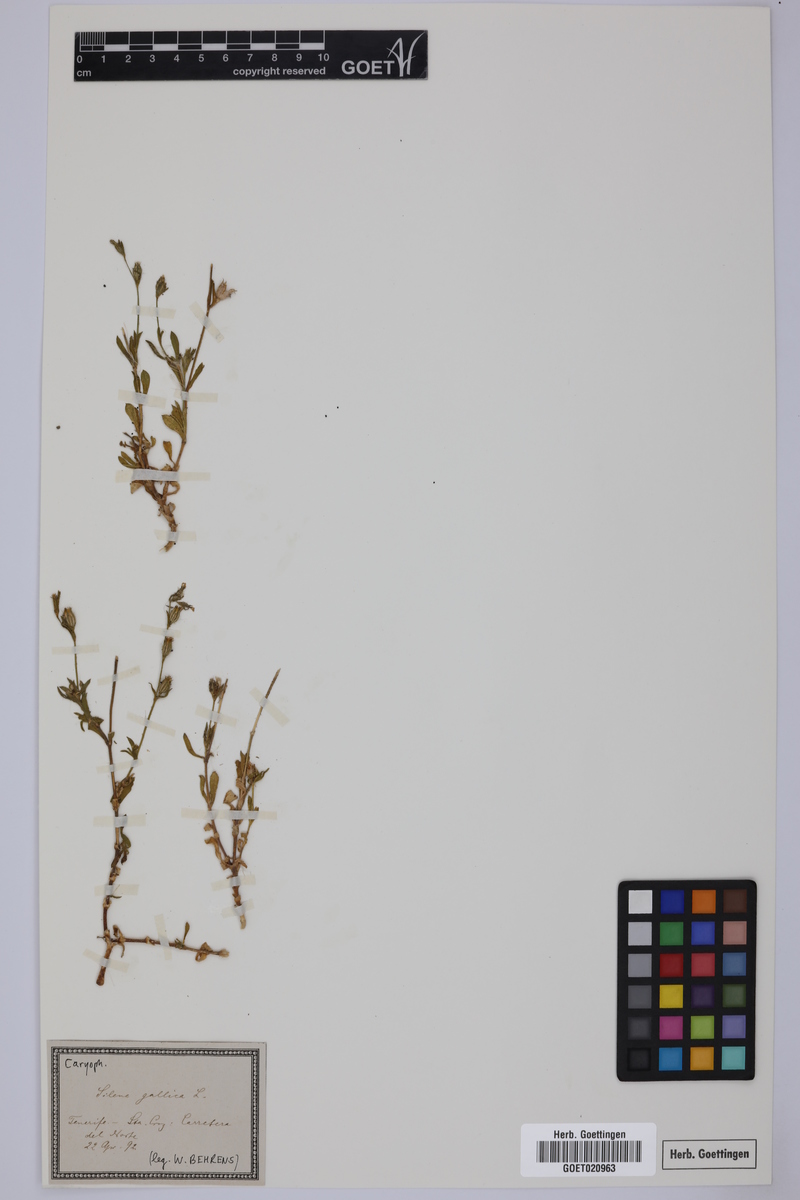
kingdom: Plantae
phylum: Tracheophyta
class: Magnoliopsida
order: Caryophyllales
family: Caryophyllaceae
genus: Silene
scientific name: Silene gallica
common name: Small-flowered catchfly
